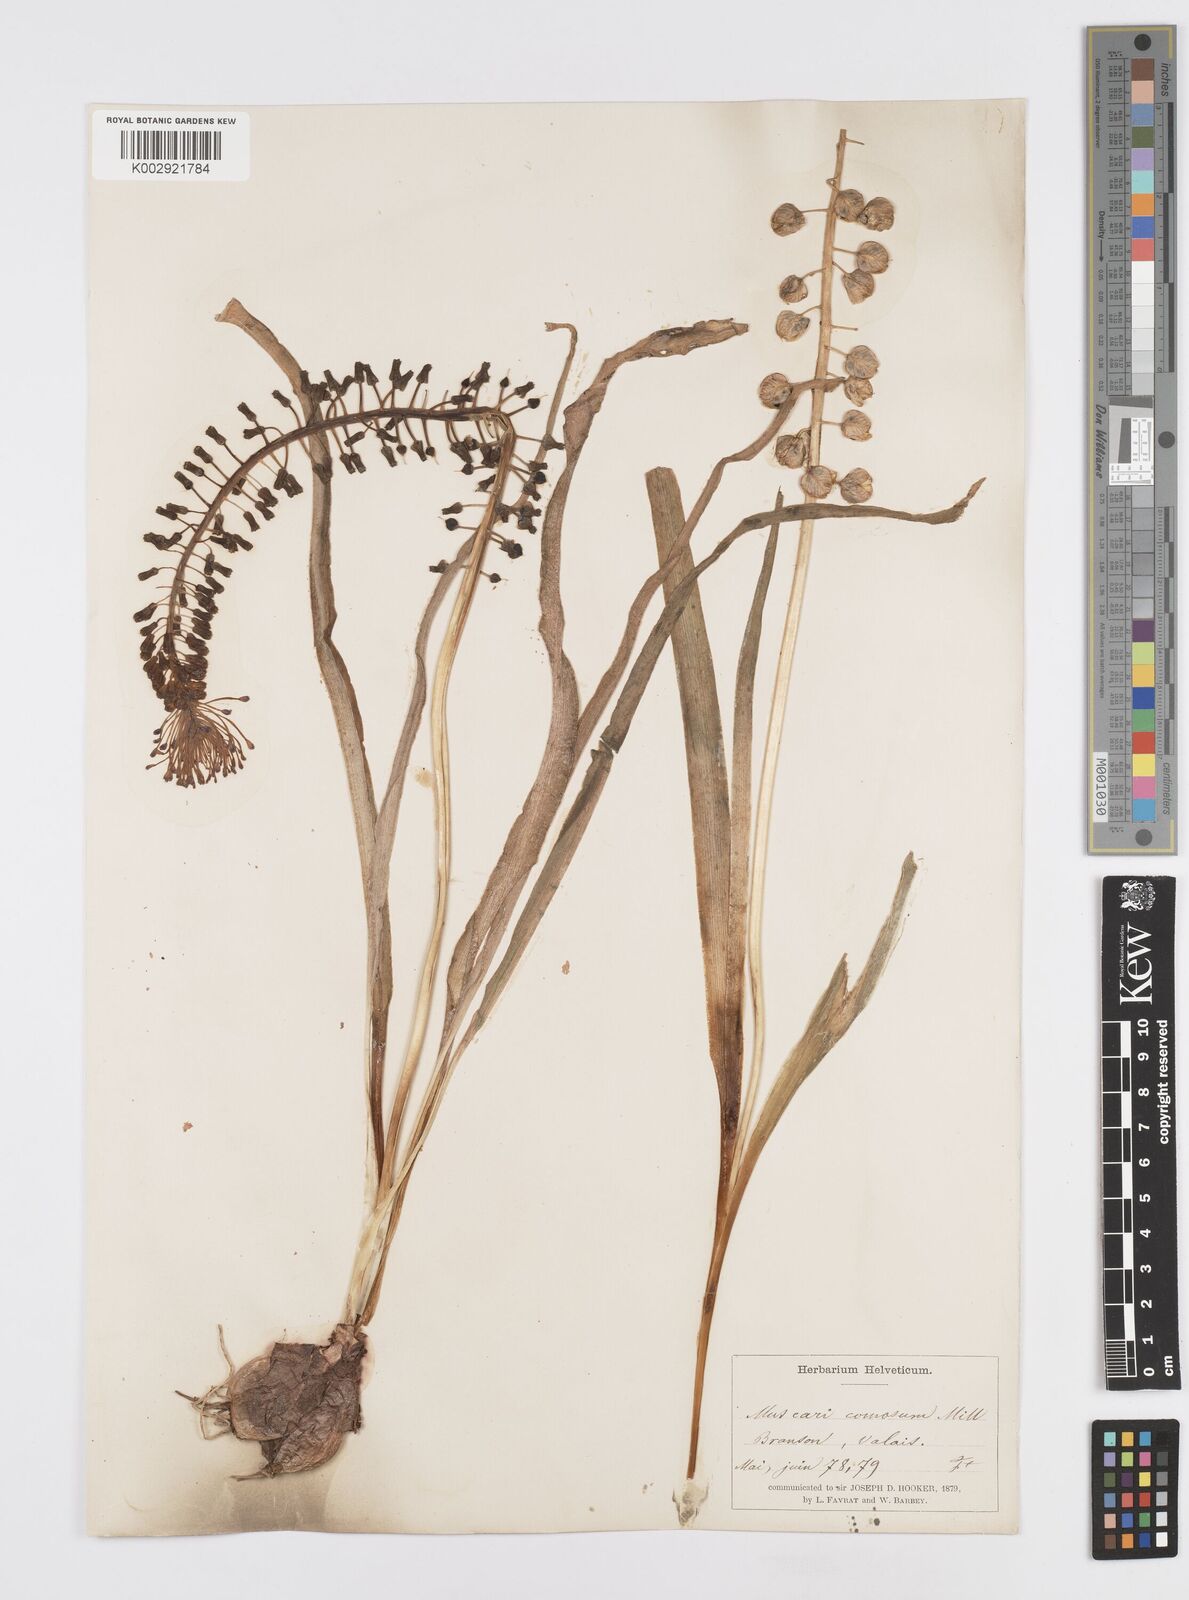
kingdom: Plantae
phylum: Tracheophyta
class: Liliopsida
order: Asparagales
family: Asparagaceae
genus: Muscari
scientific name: Muscari comosum
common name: Tassel hyacinth
